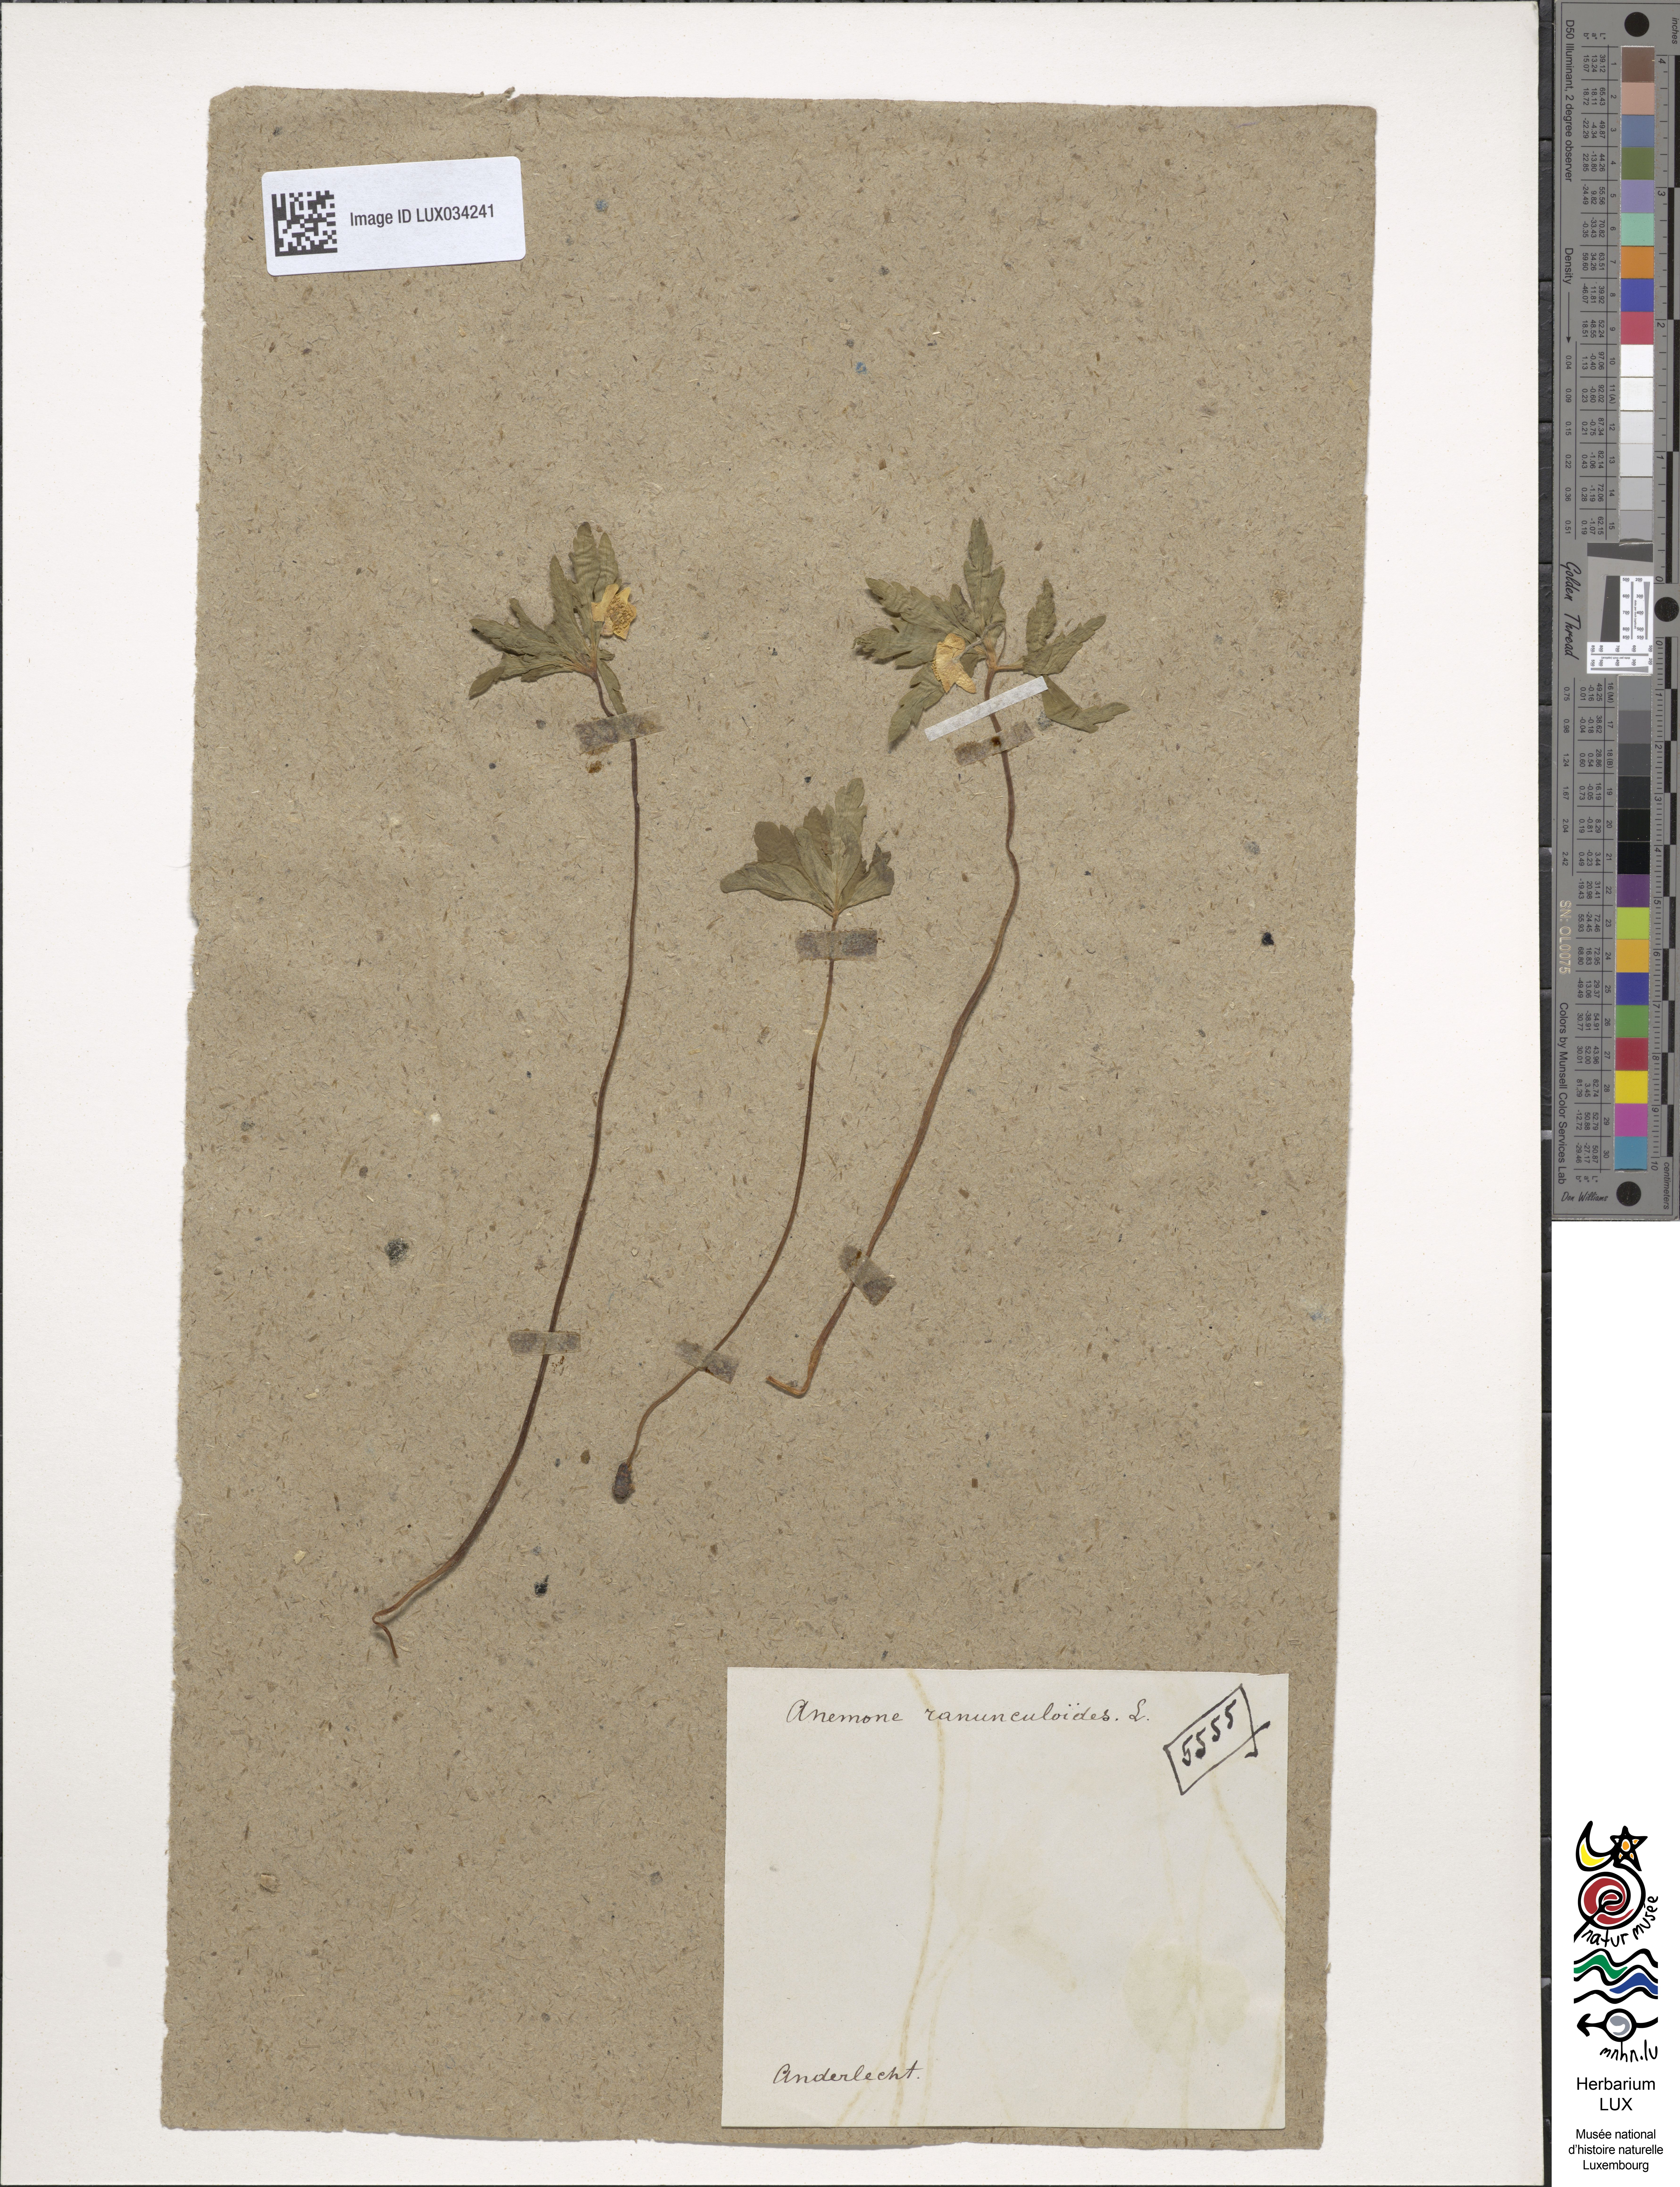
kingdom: Plantae
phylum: Tracheophyta
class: Magnoliopsida
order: Ranunculales
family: Ranunculaceae
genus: Anemone
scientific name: Anemone ranunculoides
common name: Yellow anemone
